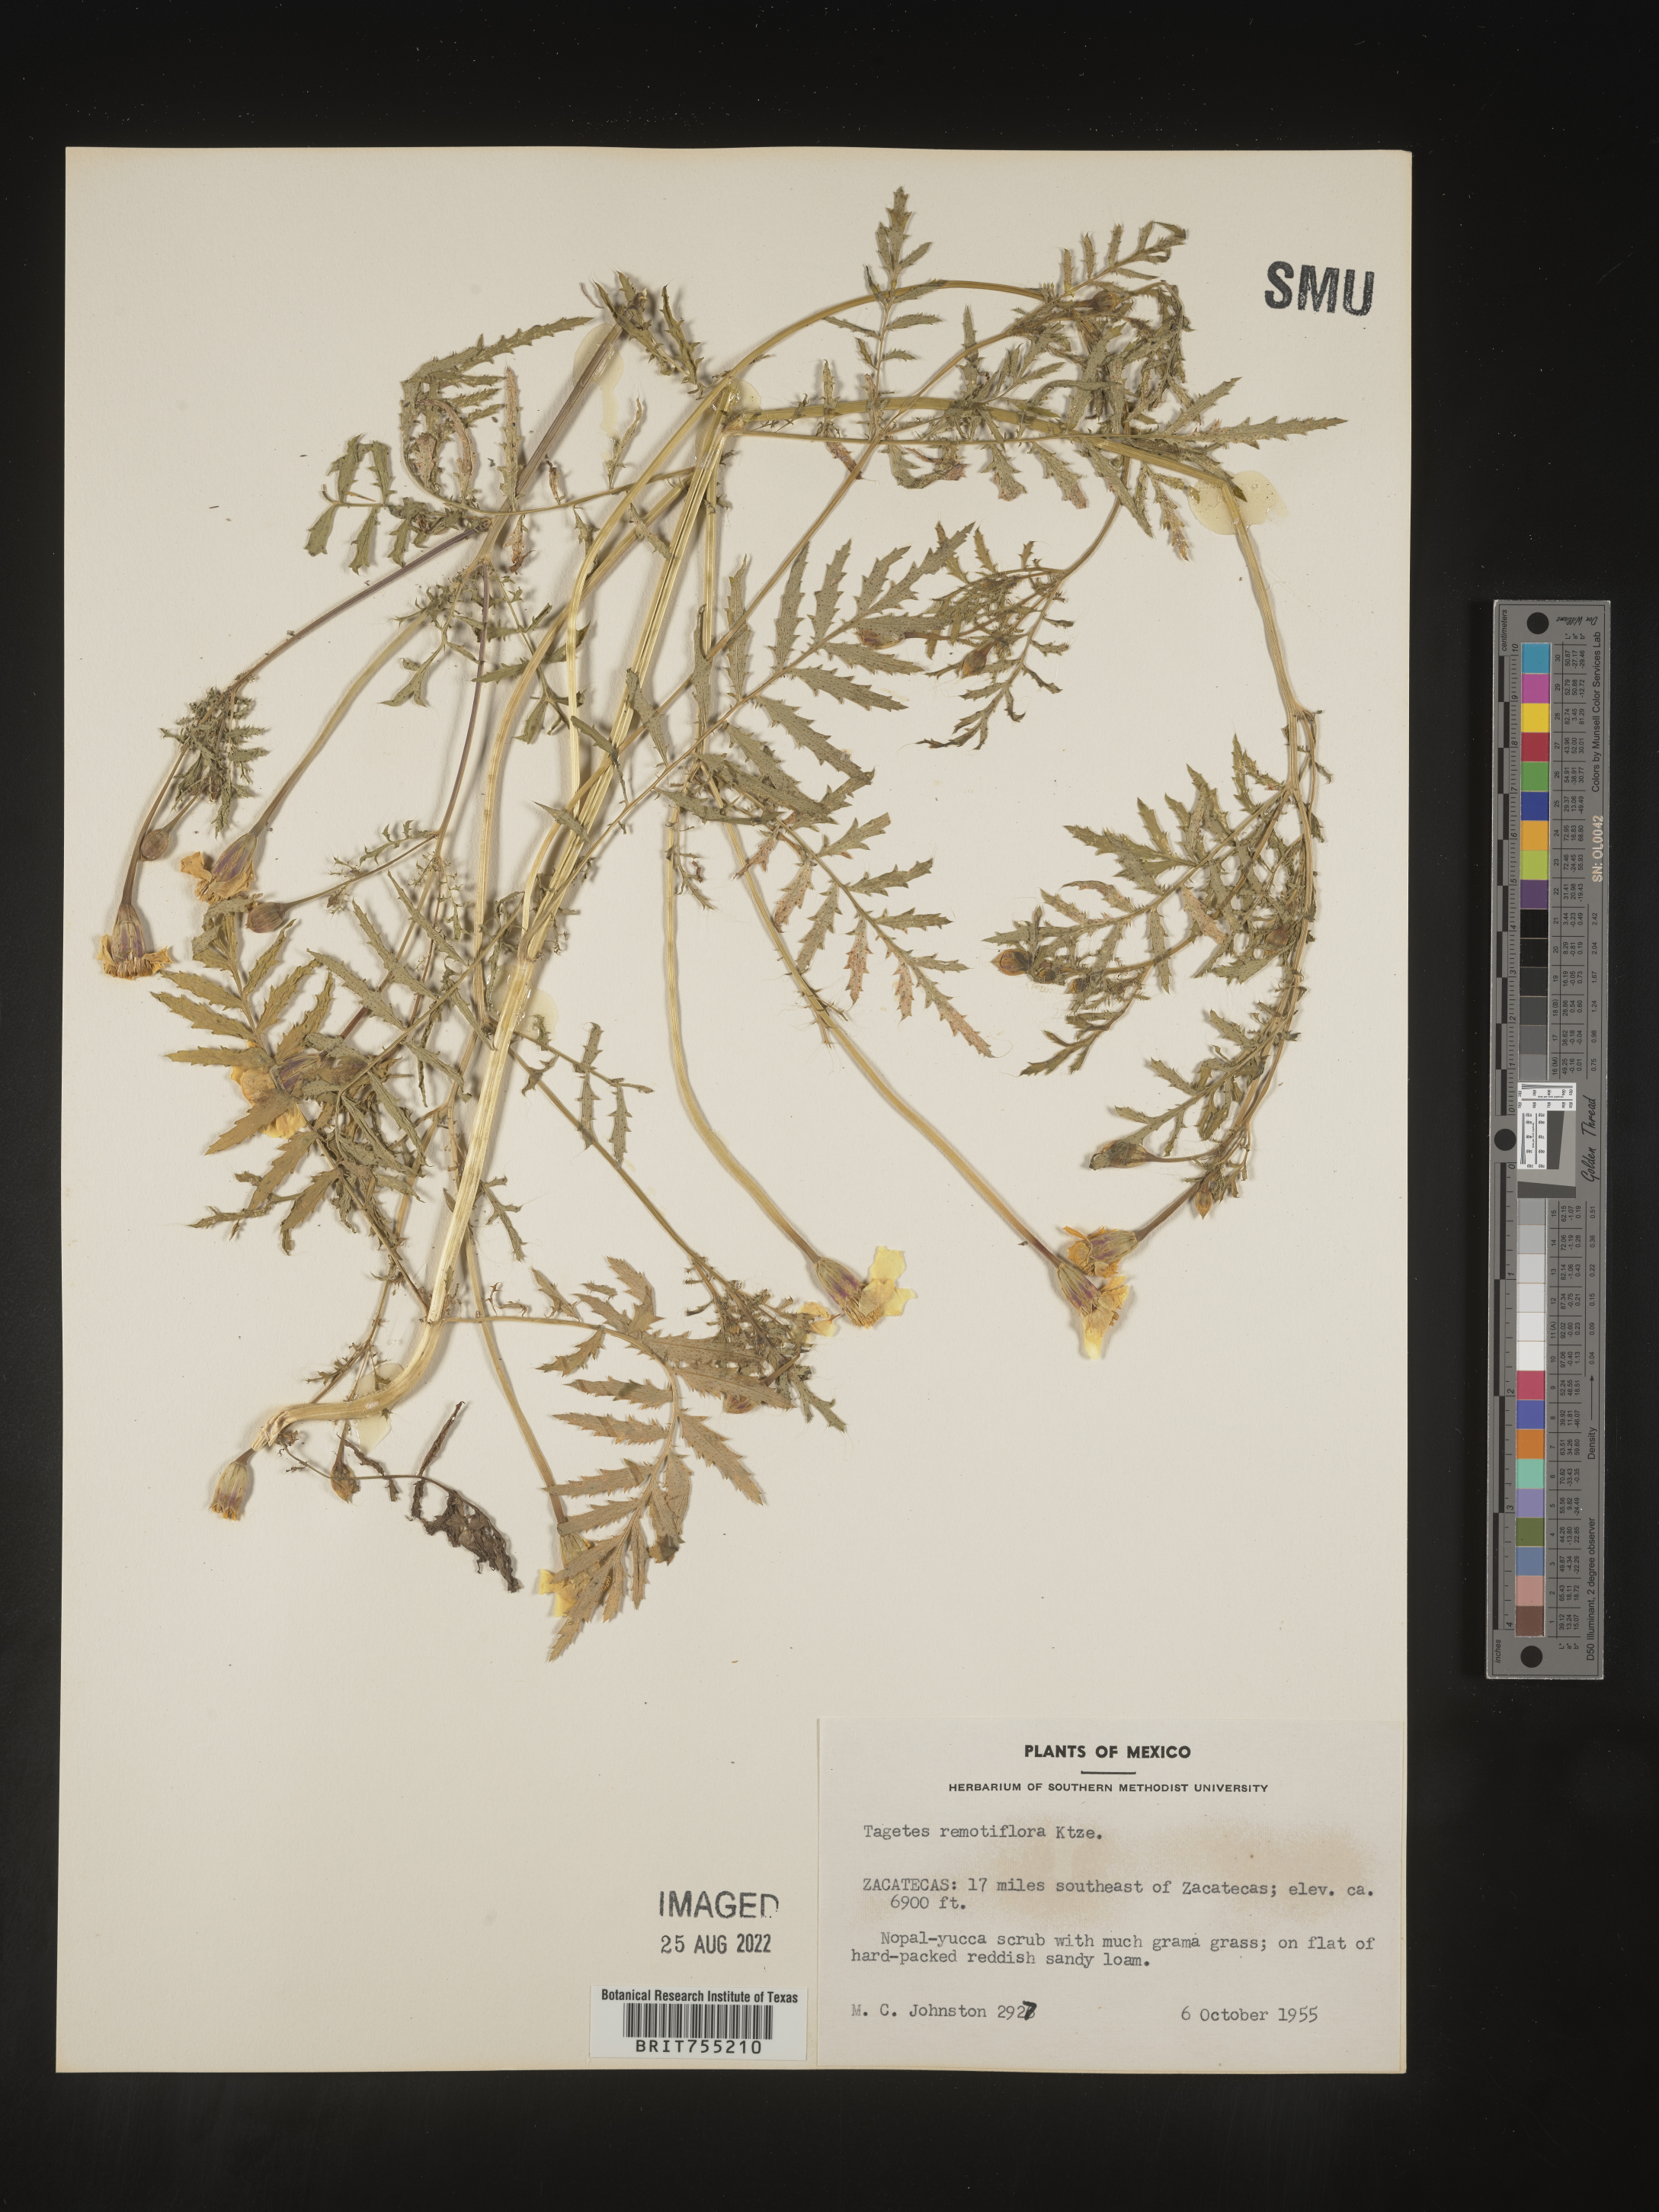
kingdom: Plantae
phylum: Tracheophyta
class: Magnoliopsida
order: Asterales
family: Asteraceae
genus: Tagetes
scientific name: Tagetes
